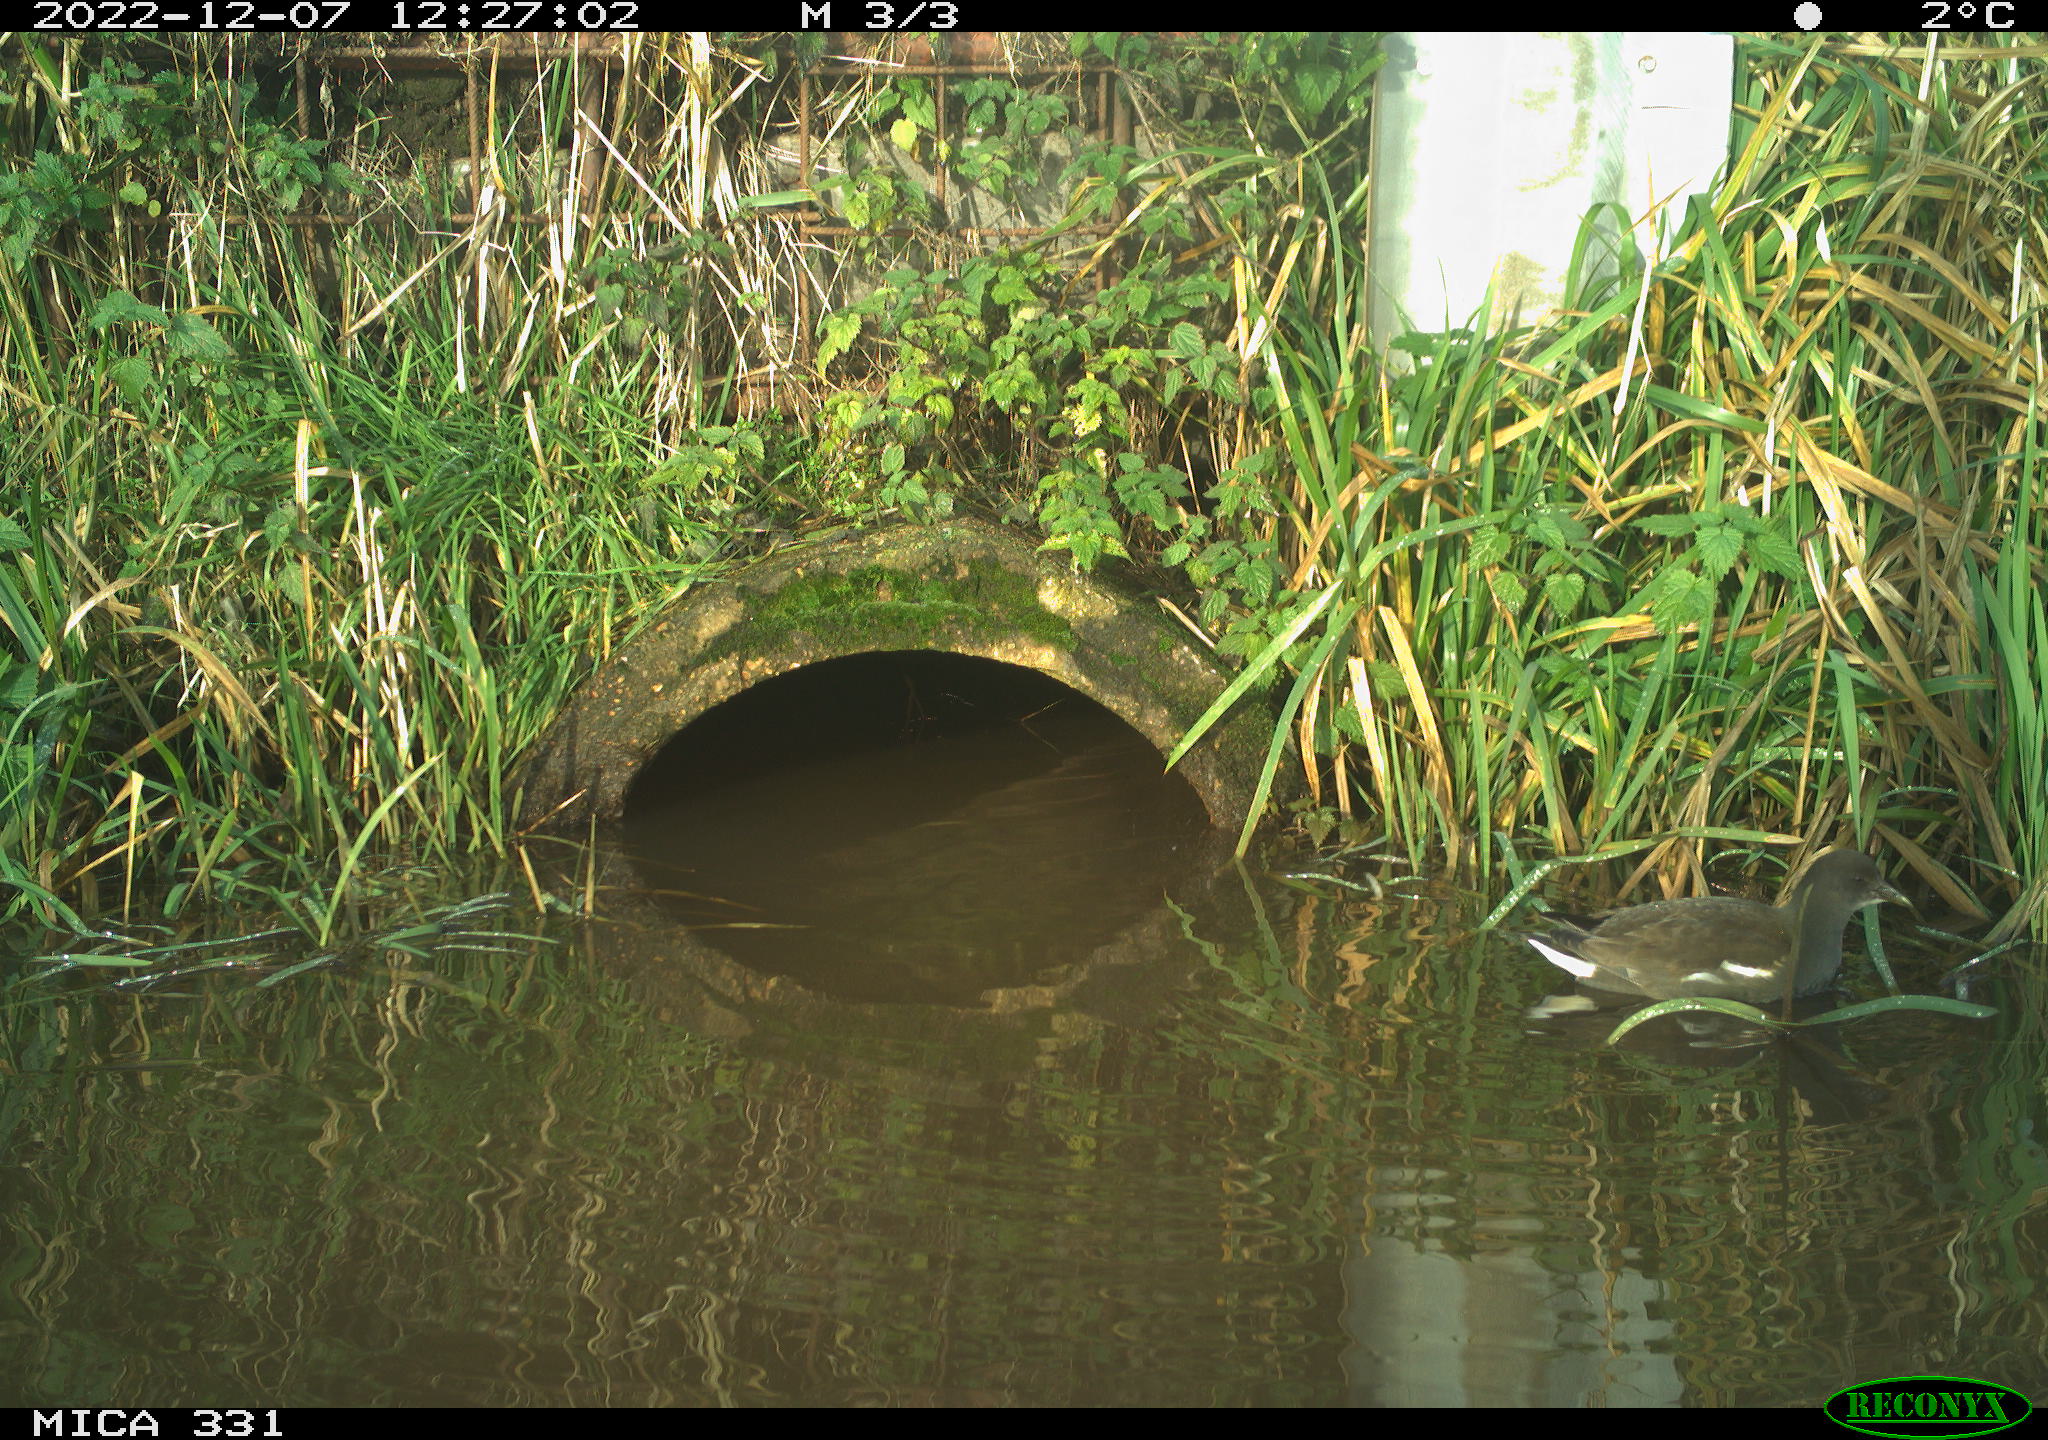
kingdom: Animalia
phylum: Chordata
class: Aves
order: Gruiformes
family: Rallidae
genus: Gallinula
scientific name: Gallinula chloropus
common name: Common moorhen
